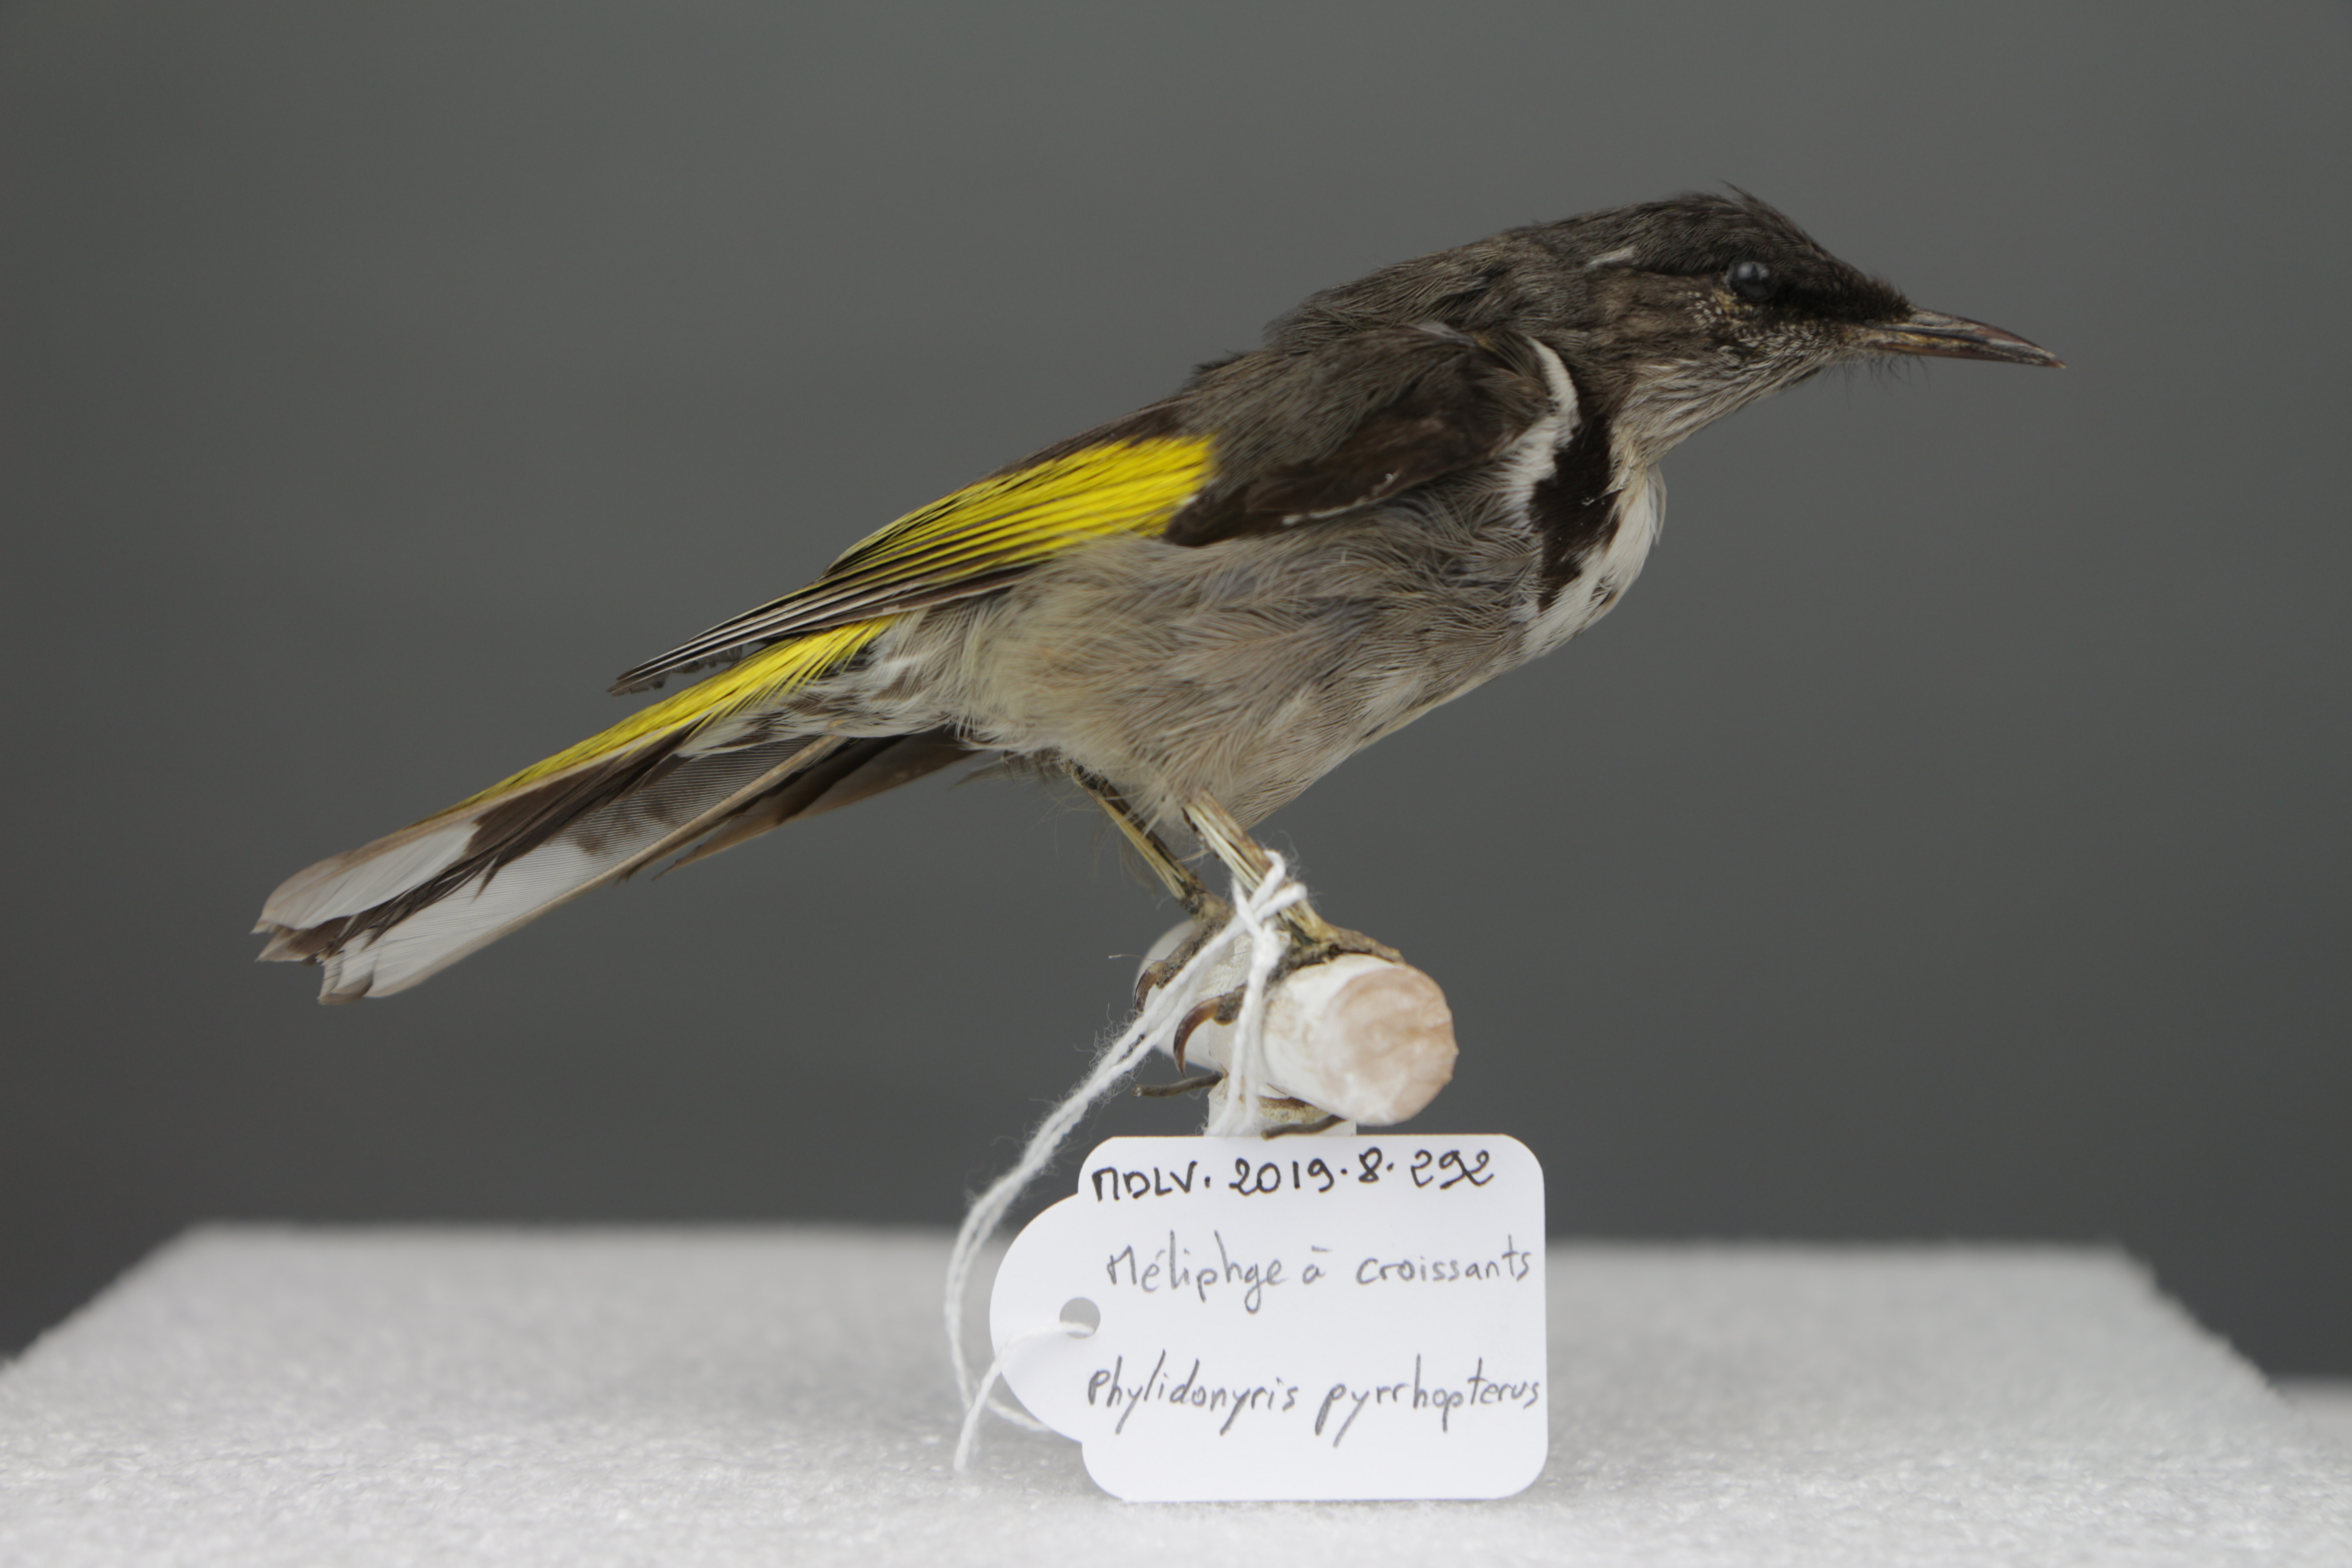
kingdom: Animalia
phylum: Chordata
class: Aves
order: Passeriformes
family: Meliphagidae
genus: Phylidonyris
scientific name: Phylidonyris pyrrhopterus
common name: Crescent honeyeater
